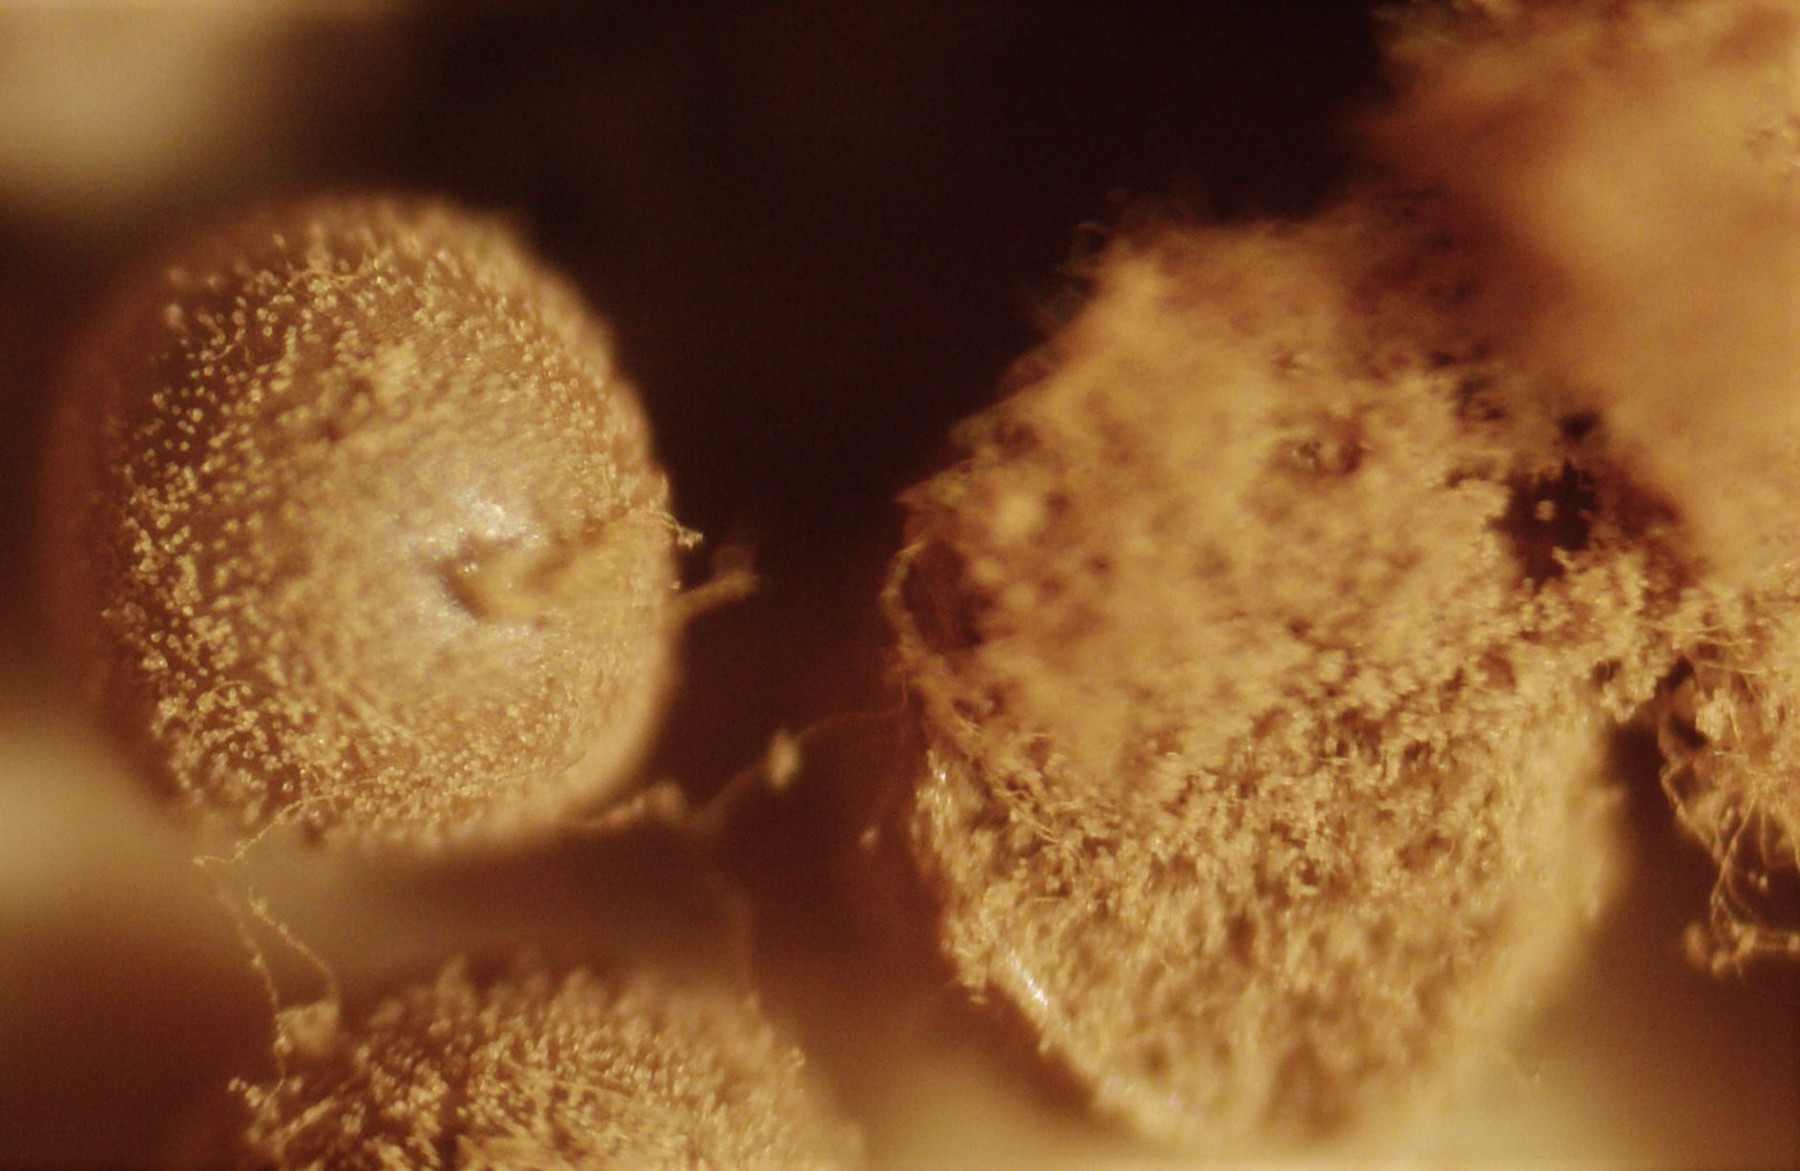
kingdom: Protozoa
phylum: Mycetozoa
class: Myxomycetes
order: Trichiales
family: Trichiaceae
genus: Trichia
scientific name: Trichia
